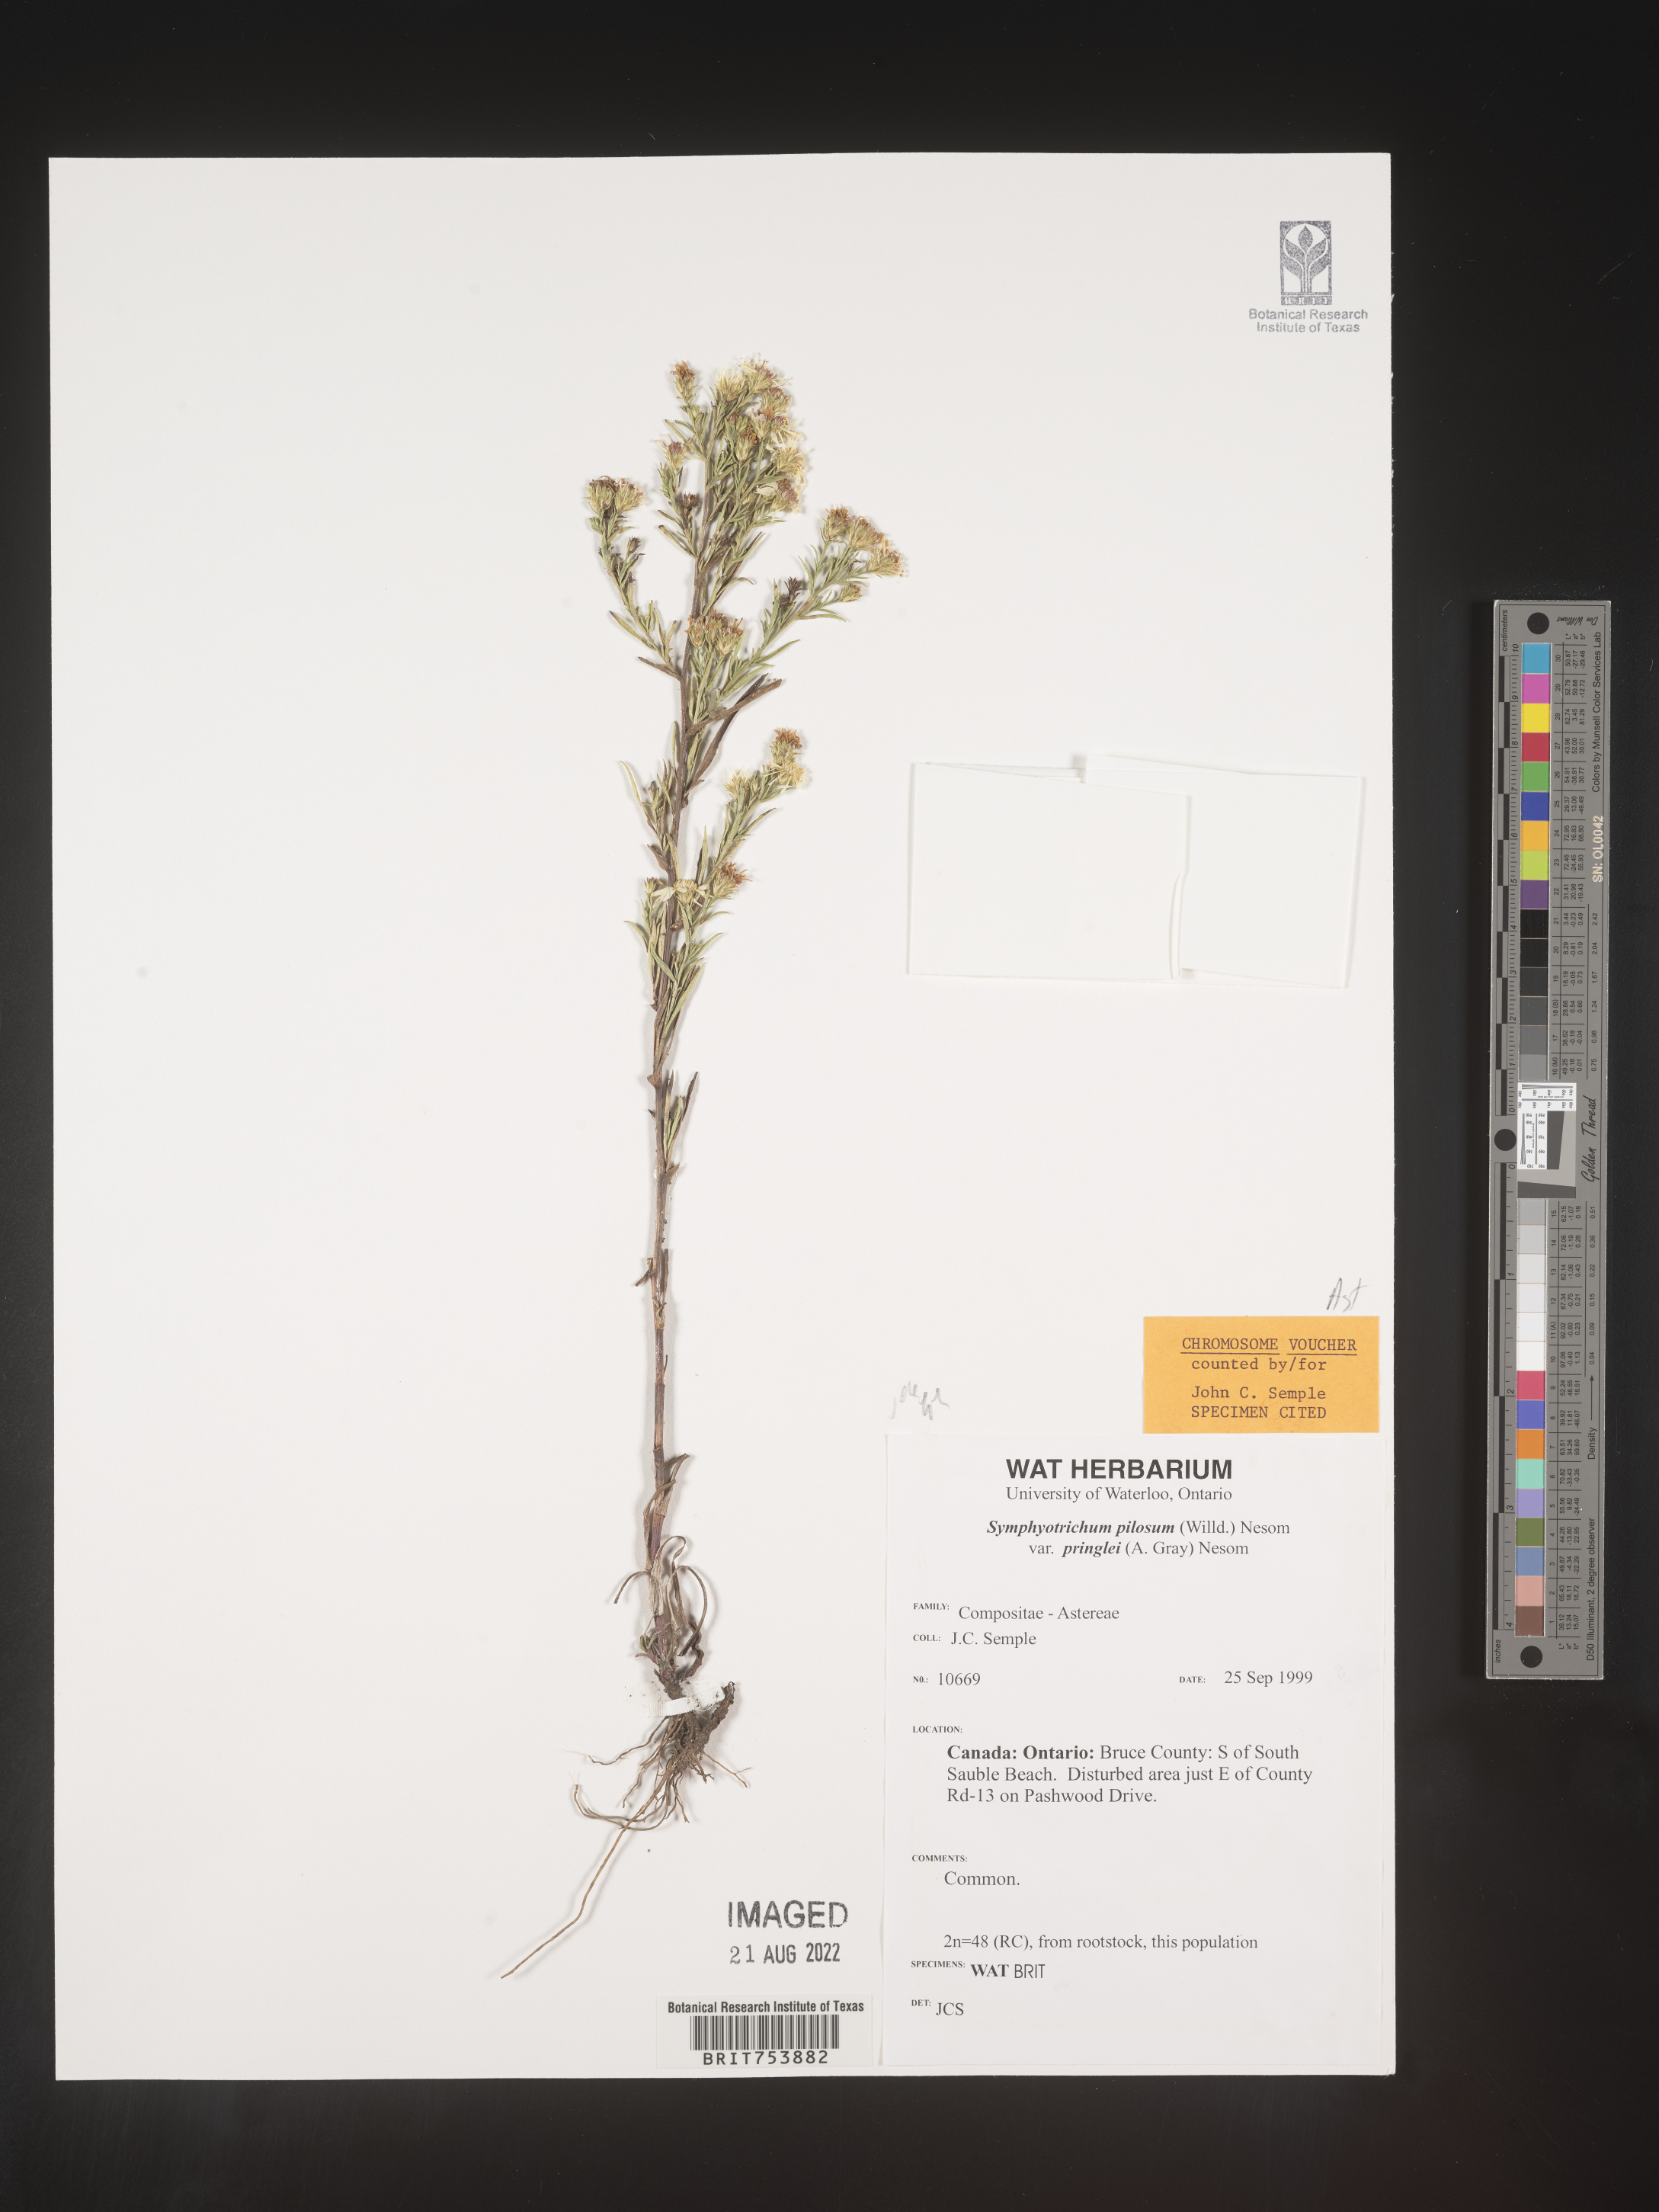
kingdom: Plantae
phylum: Tracheophyta
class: Magnoliopsida
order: Asterales
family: Asteraceae
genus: Symphyotrichum
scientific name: Symphyotrichum pilosum
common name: Awl aster
